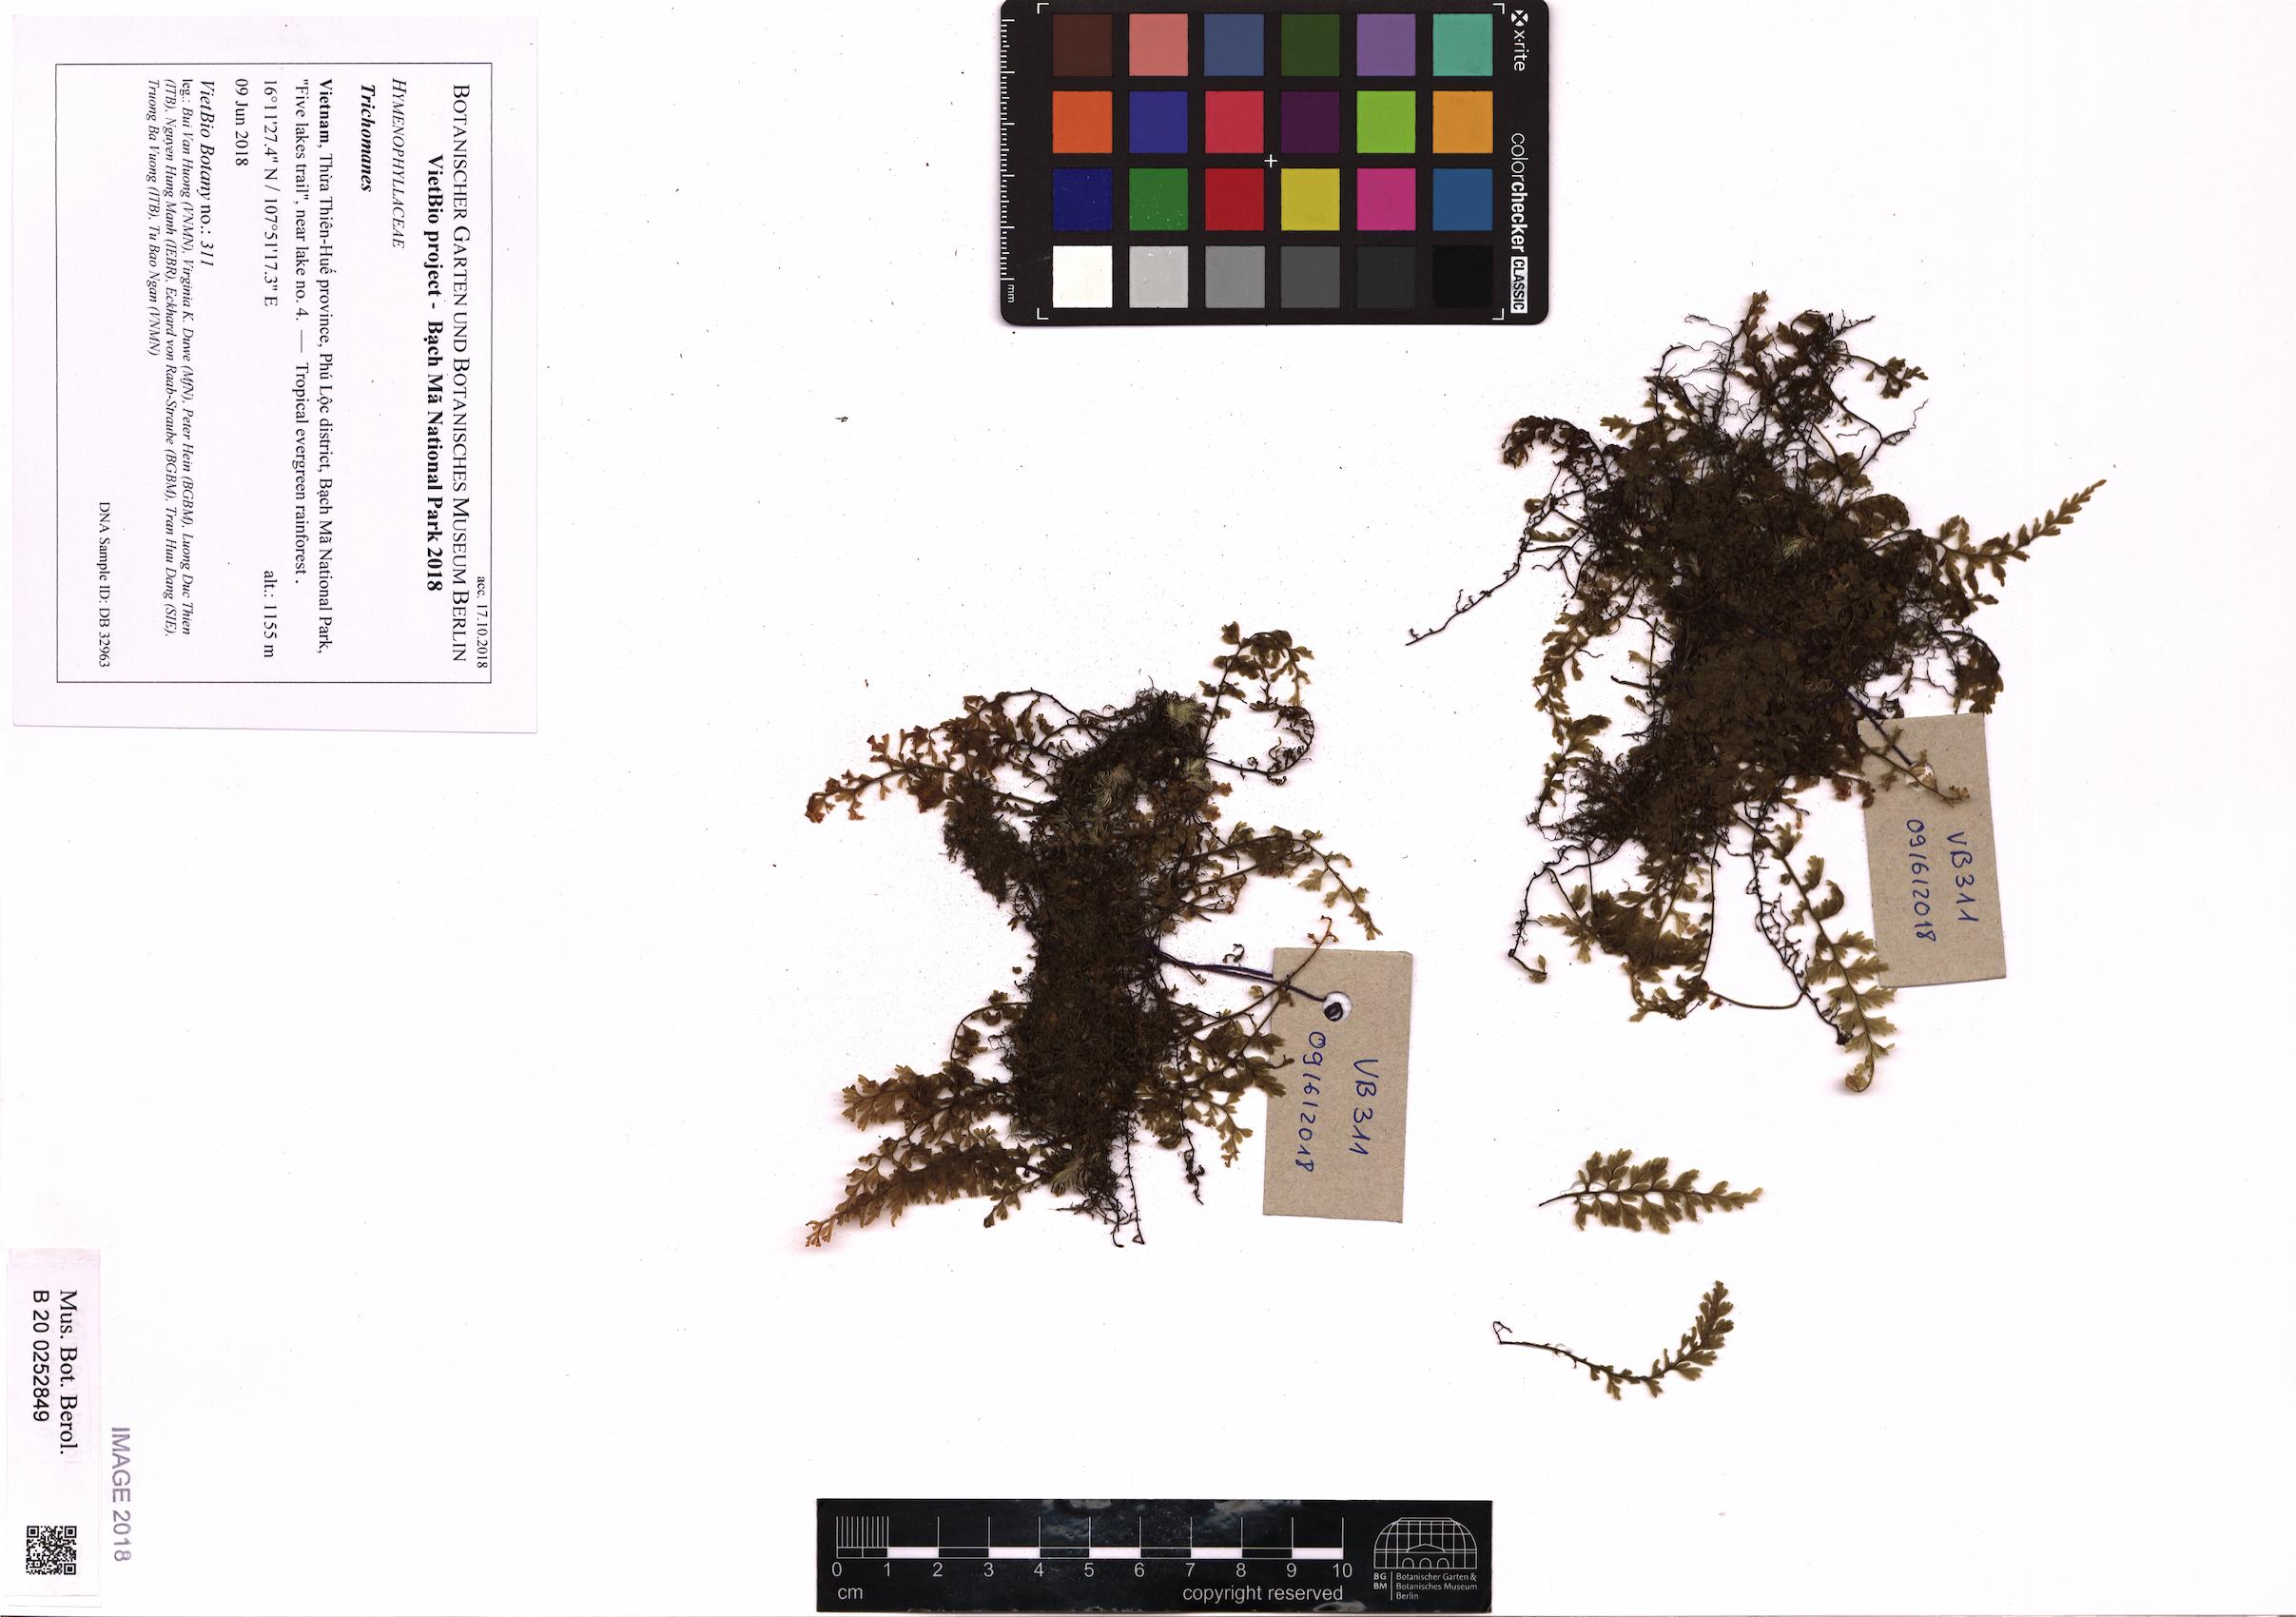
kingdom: Plantae
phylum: Tracheophyta
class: Polypodiopsida
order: Hymenophyllales
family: Hymenophyllaceae
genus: Trichomanes
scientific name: Trichomanes
